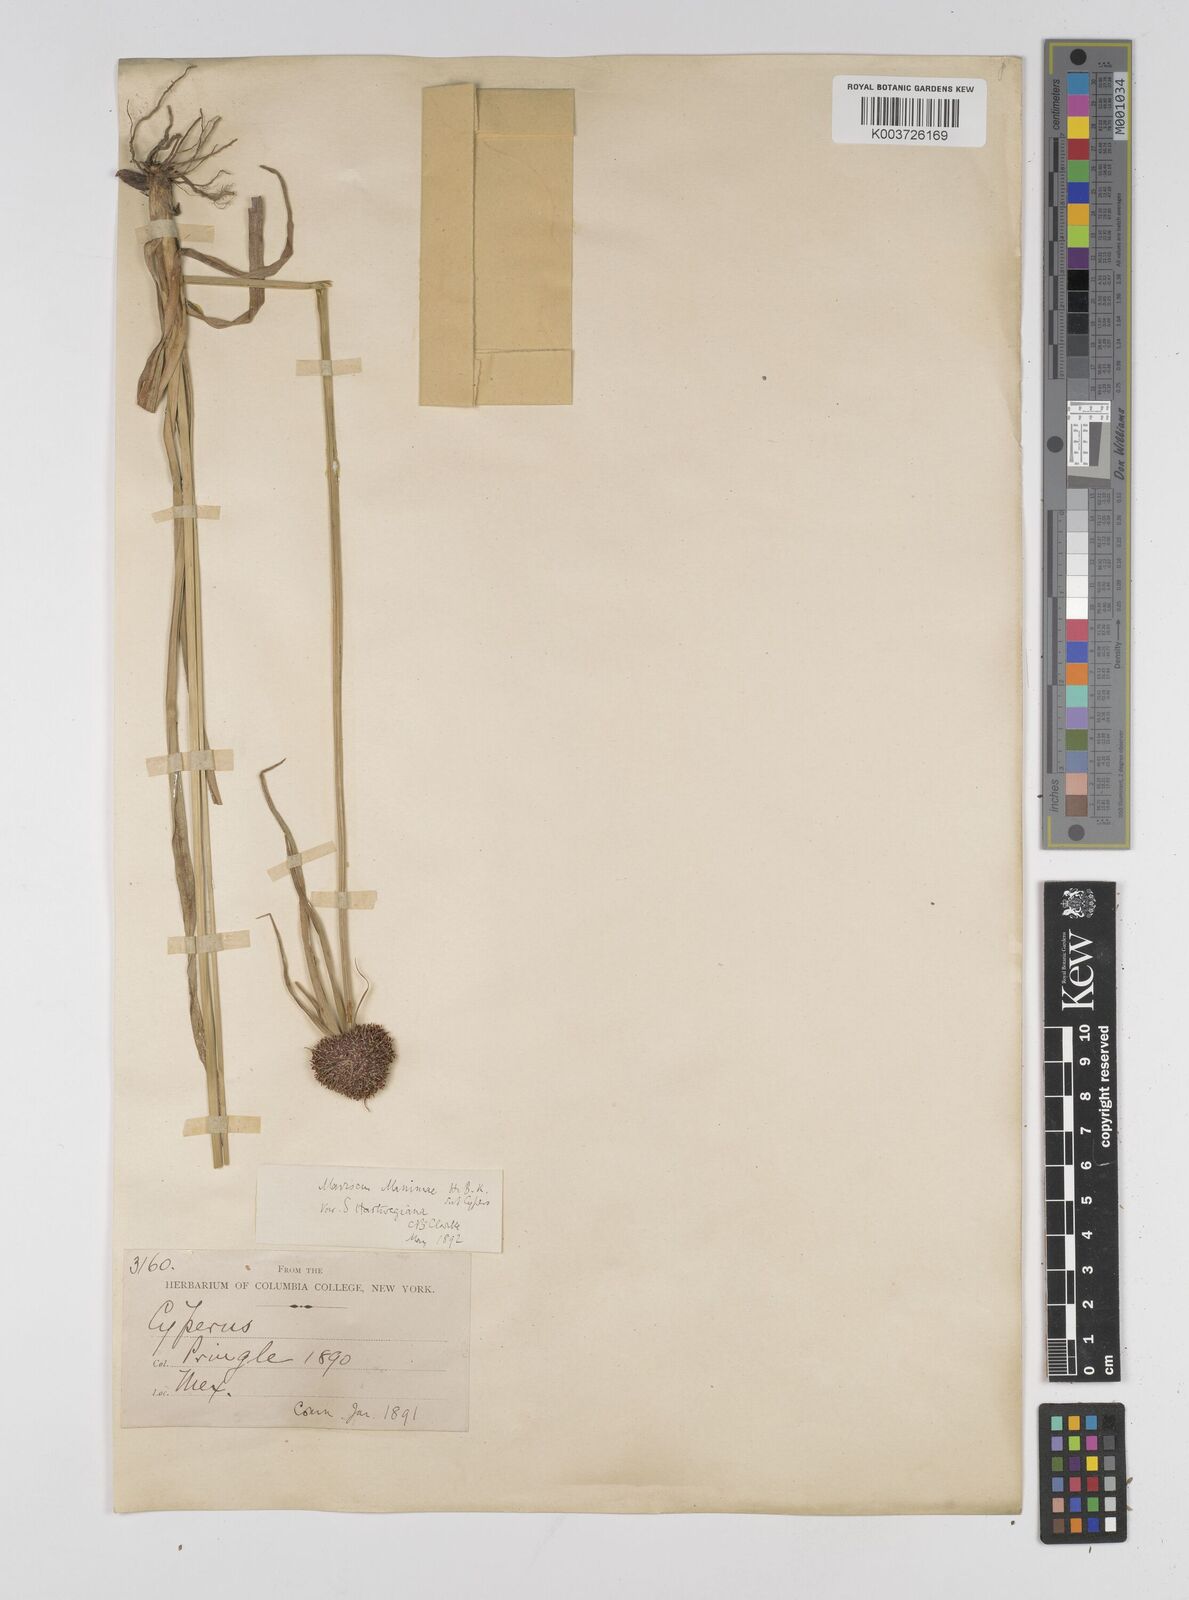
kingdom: Plantae
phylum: Tracheophyta
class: Liliopsida
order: Poales
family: Cyperaceae
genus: Cyperus
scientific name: Cyperus manimae
